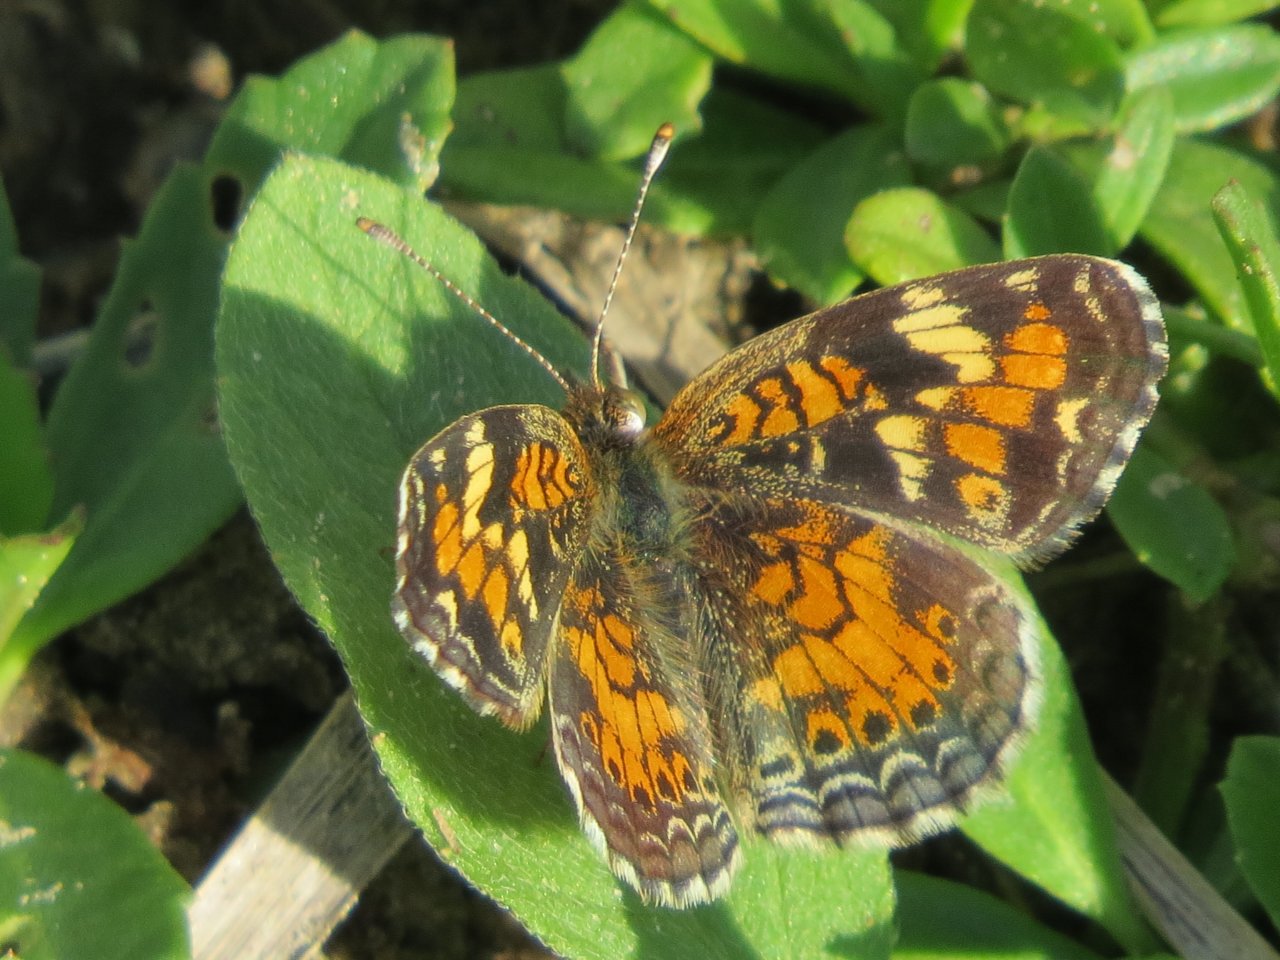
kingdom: Animalia
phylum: Arthropoda
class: Insecta
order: Lepidoptera
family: Nymphalidae
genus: Phyciodes
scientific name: Phyciodes phaon
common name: Phaon Crescent
